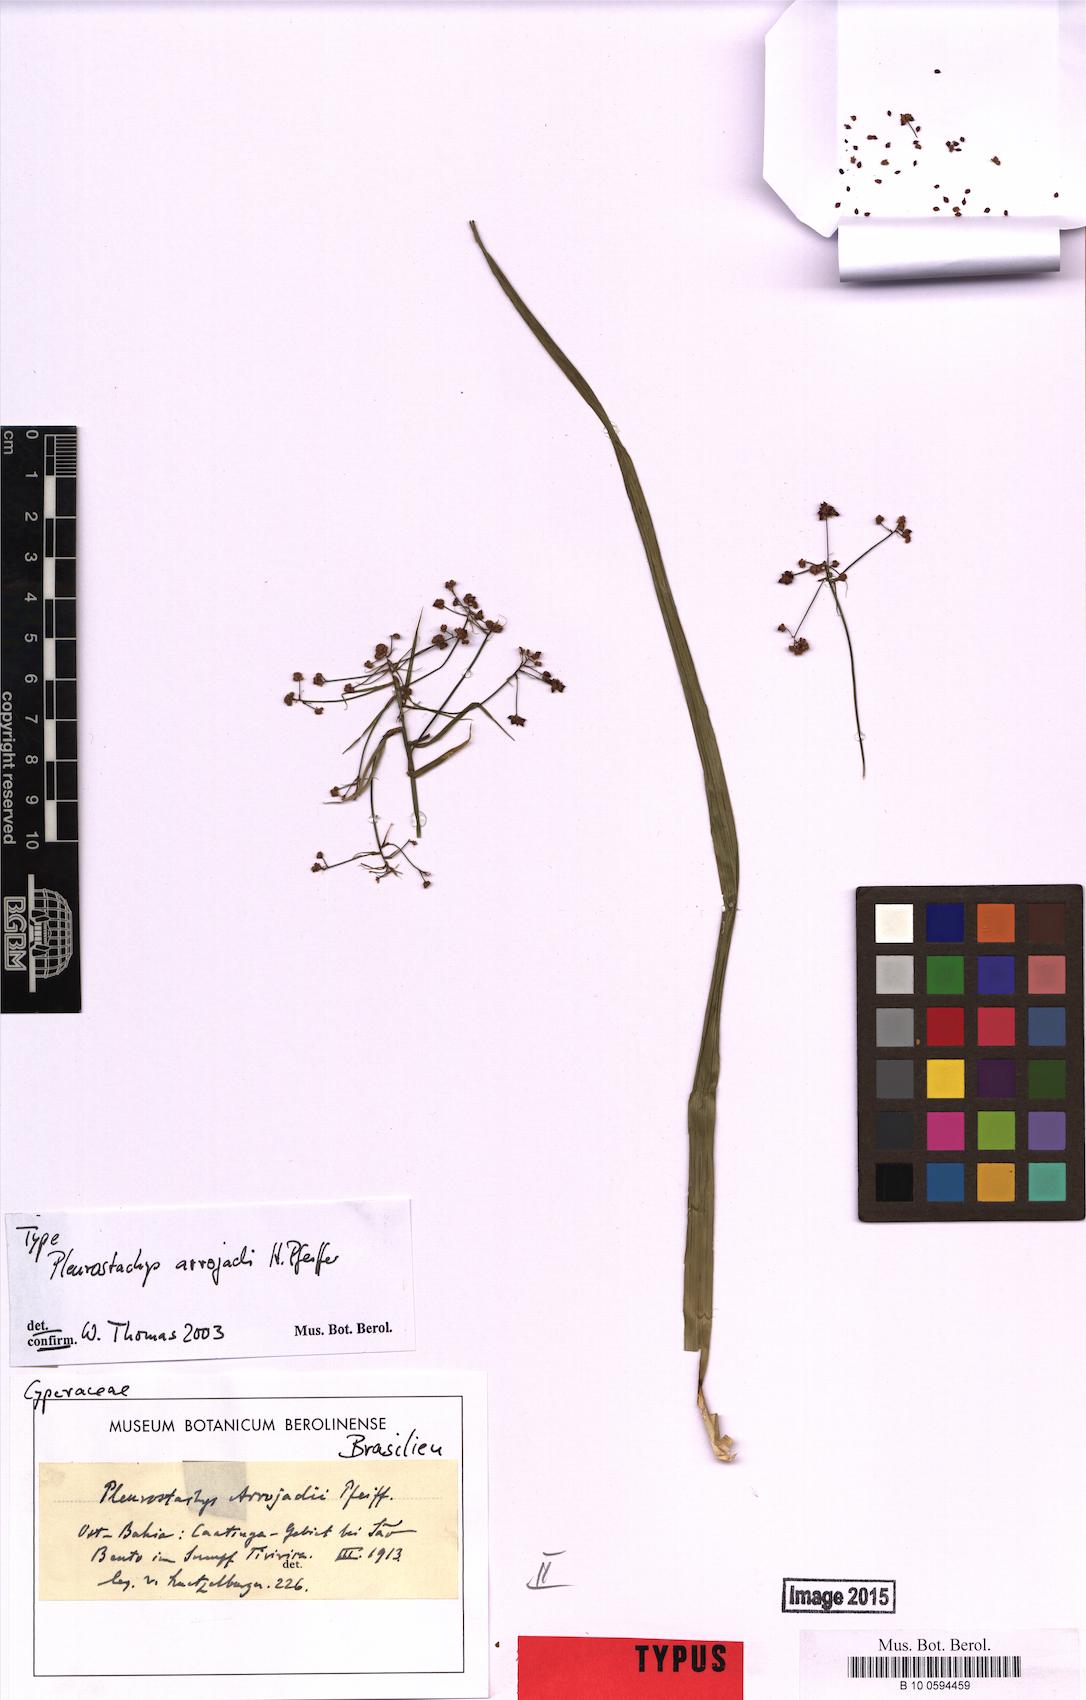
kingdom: Plantae
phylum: Tracheophyta
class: Liliopsida
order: Poales
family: Cyperaceae
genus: Rhynchospora
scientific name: Rhynchospora foliosa
